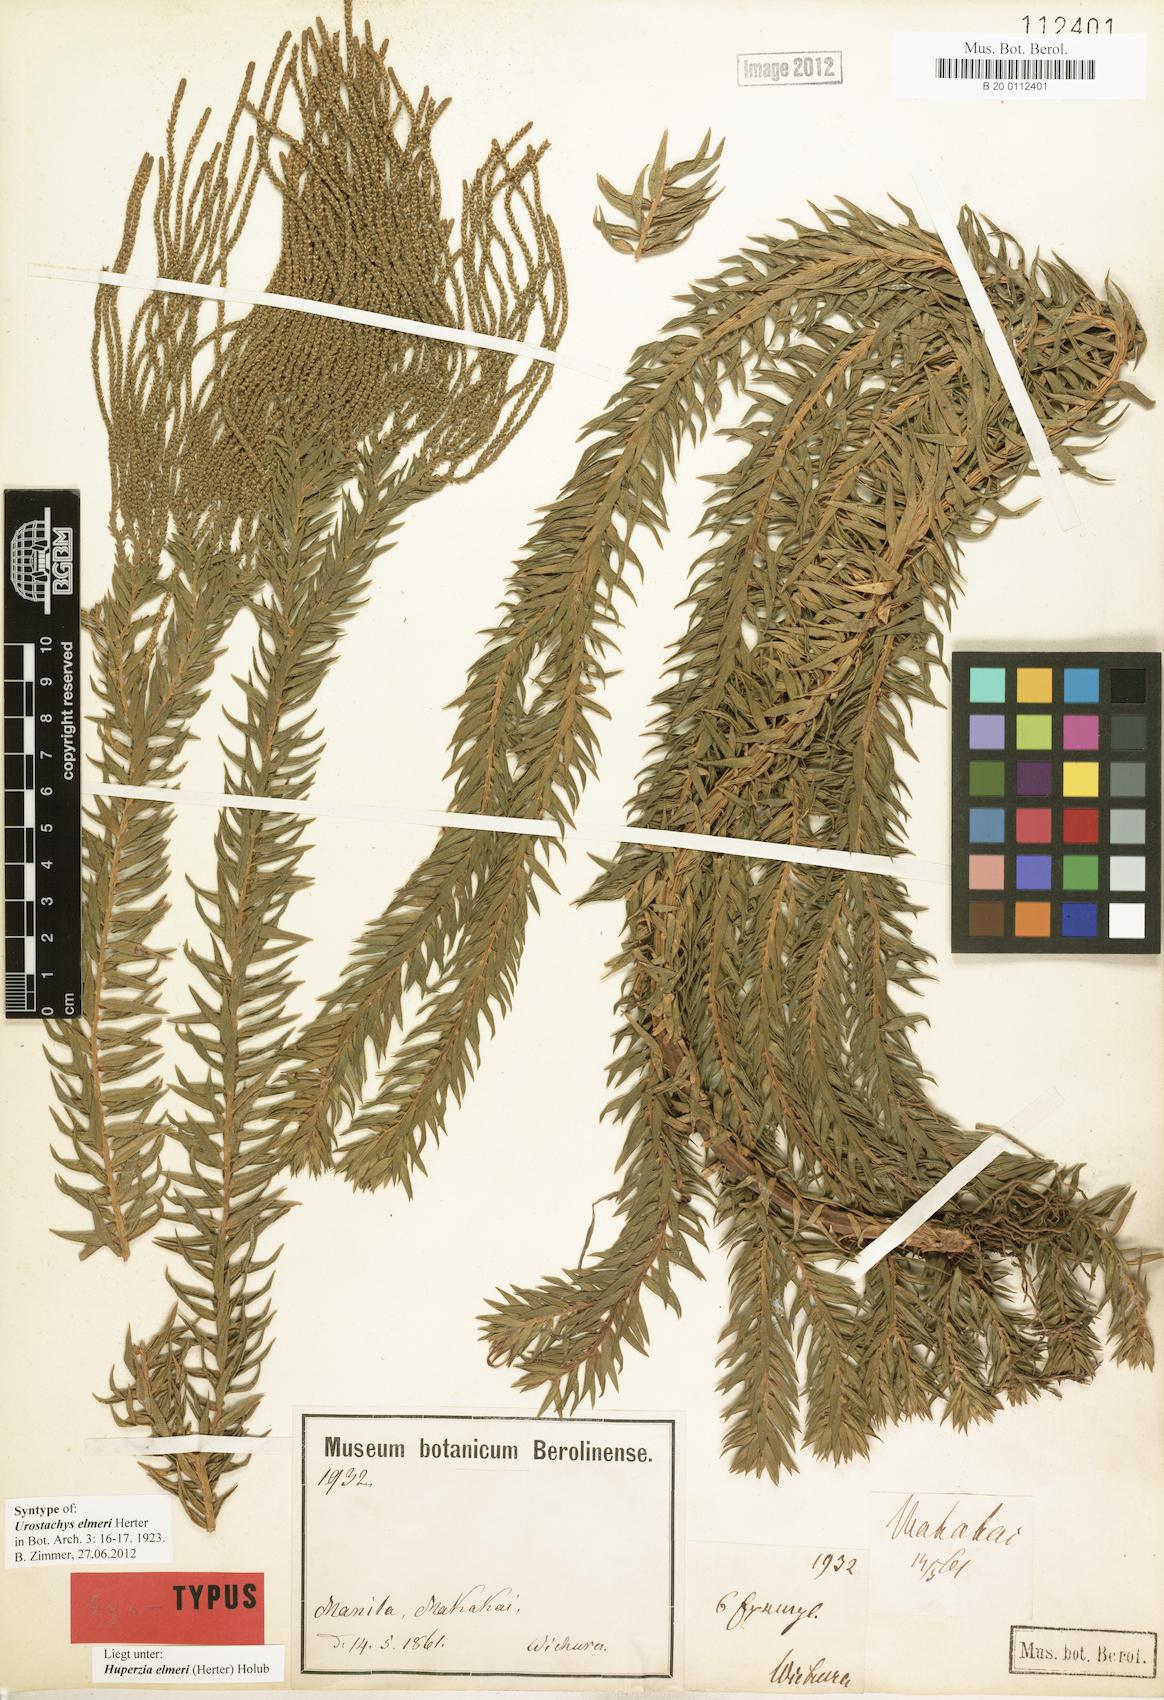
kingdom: Plantae
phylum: Tracheophyta
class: Lycopodiopsida
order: Lycopodiales
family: Lycopodiaceae
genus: Phlegmariurus
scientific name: Phlegmariurus elmeri
